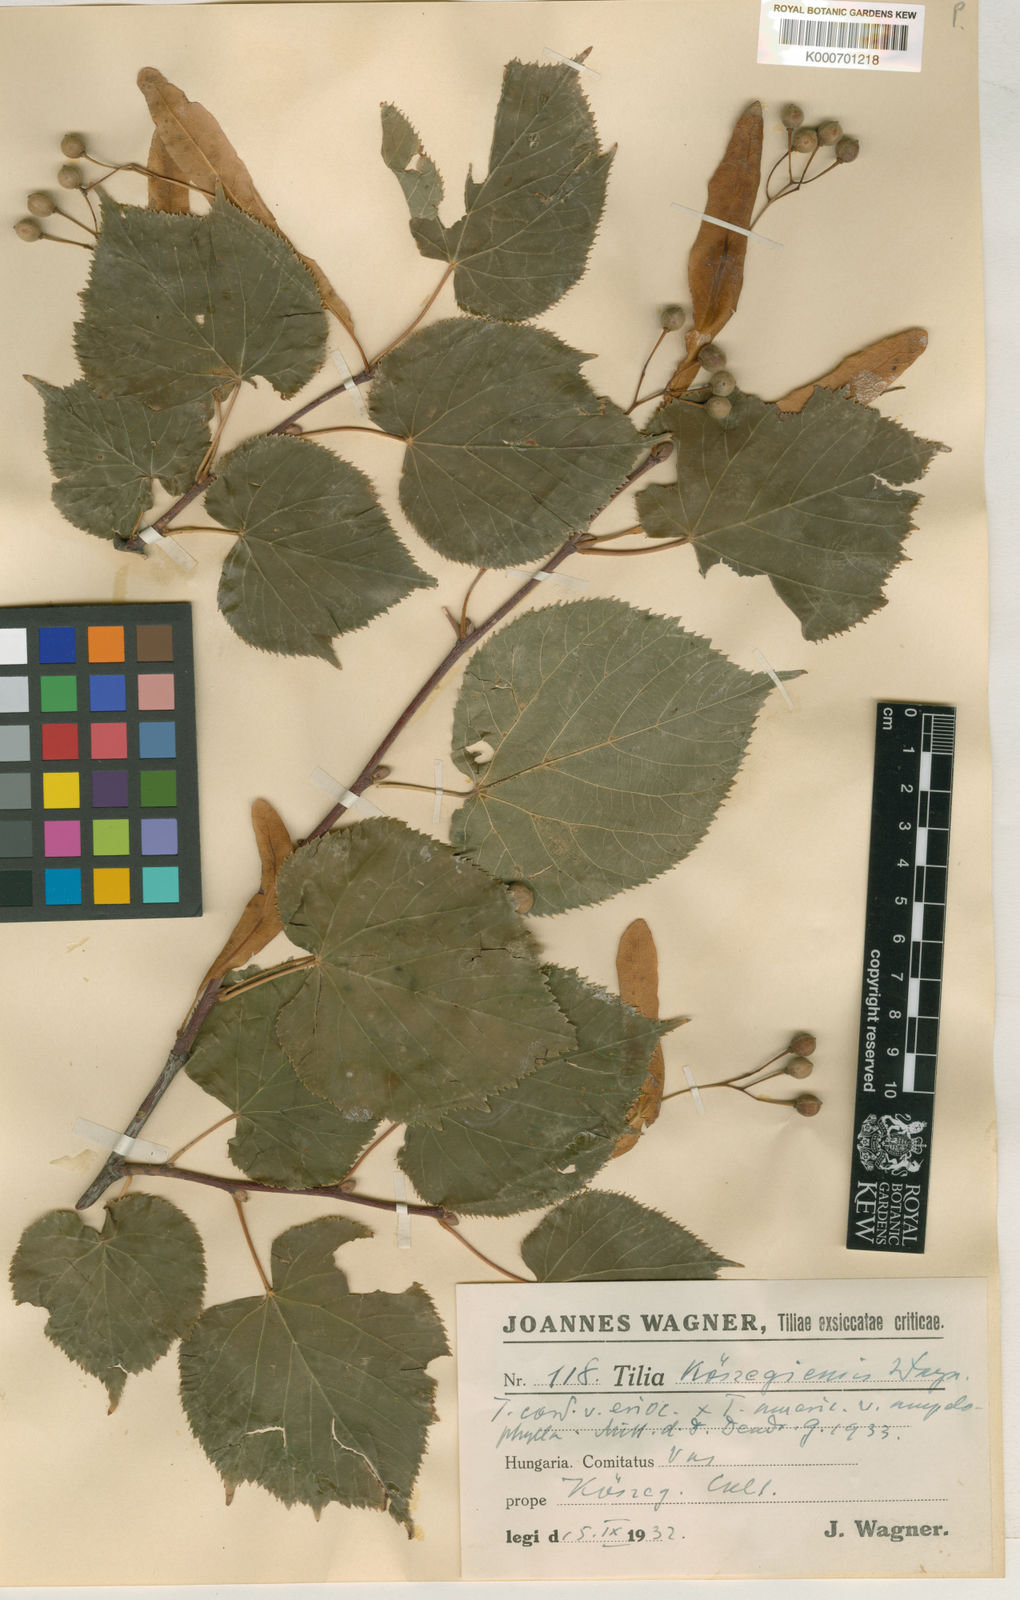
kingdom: Plantae
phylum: Tracheophyta
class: Magnoliopsida
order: Malvales
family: Malvaceae
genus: Tilia
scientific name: Tilia cordata
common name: Small-leaved lime
